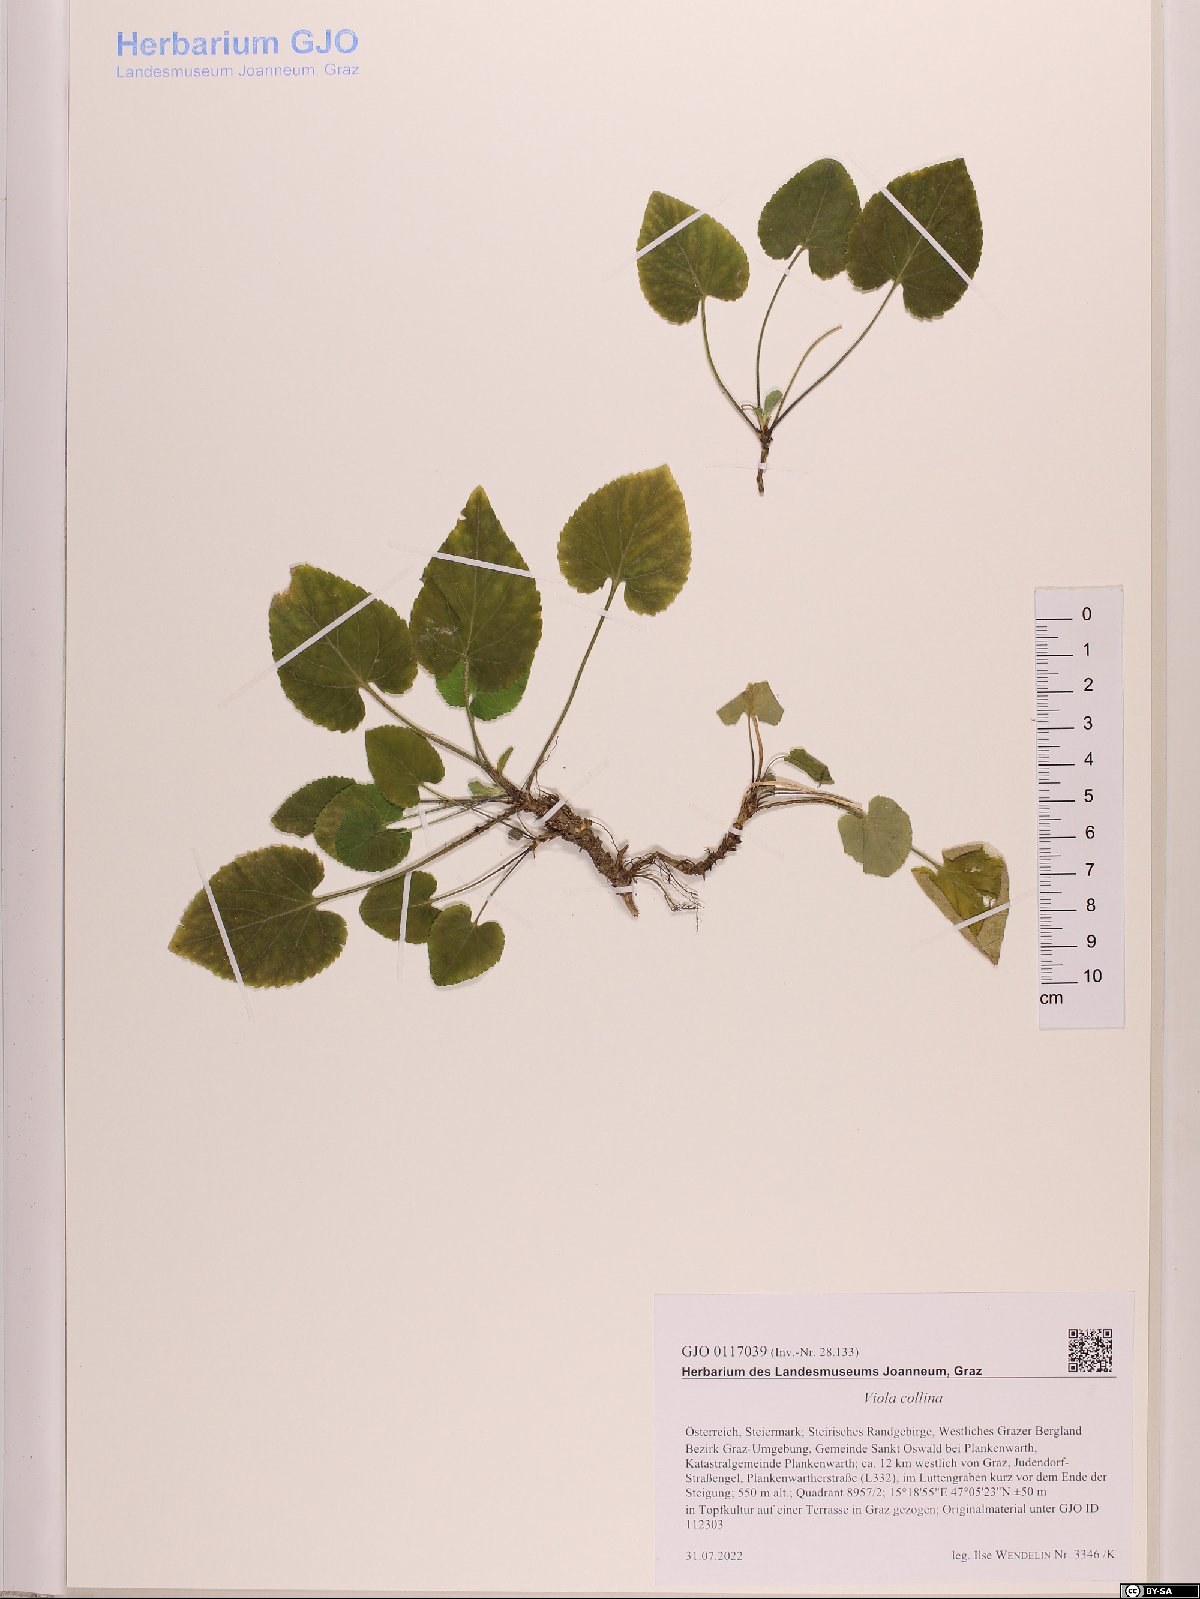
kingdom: Plantae
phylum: Tracheophyta
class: Magnoliopsida
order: Malpighiales
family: Violaceae
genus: Viola
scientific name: Viola collina
